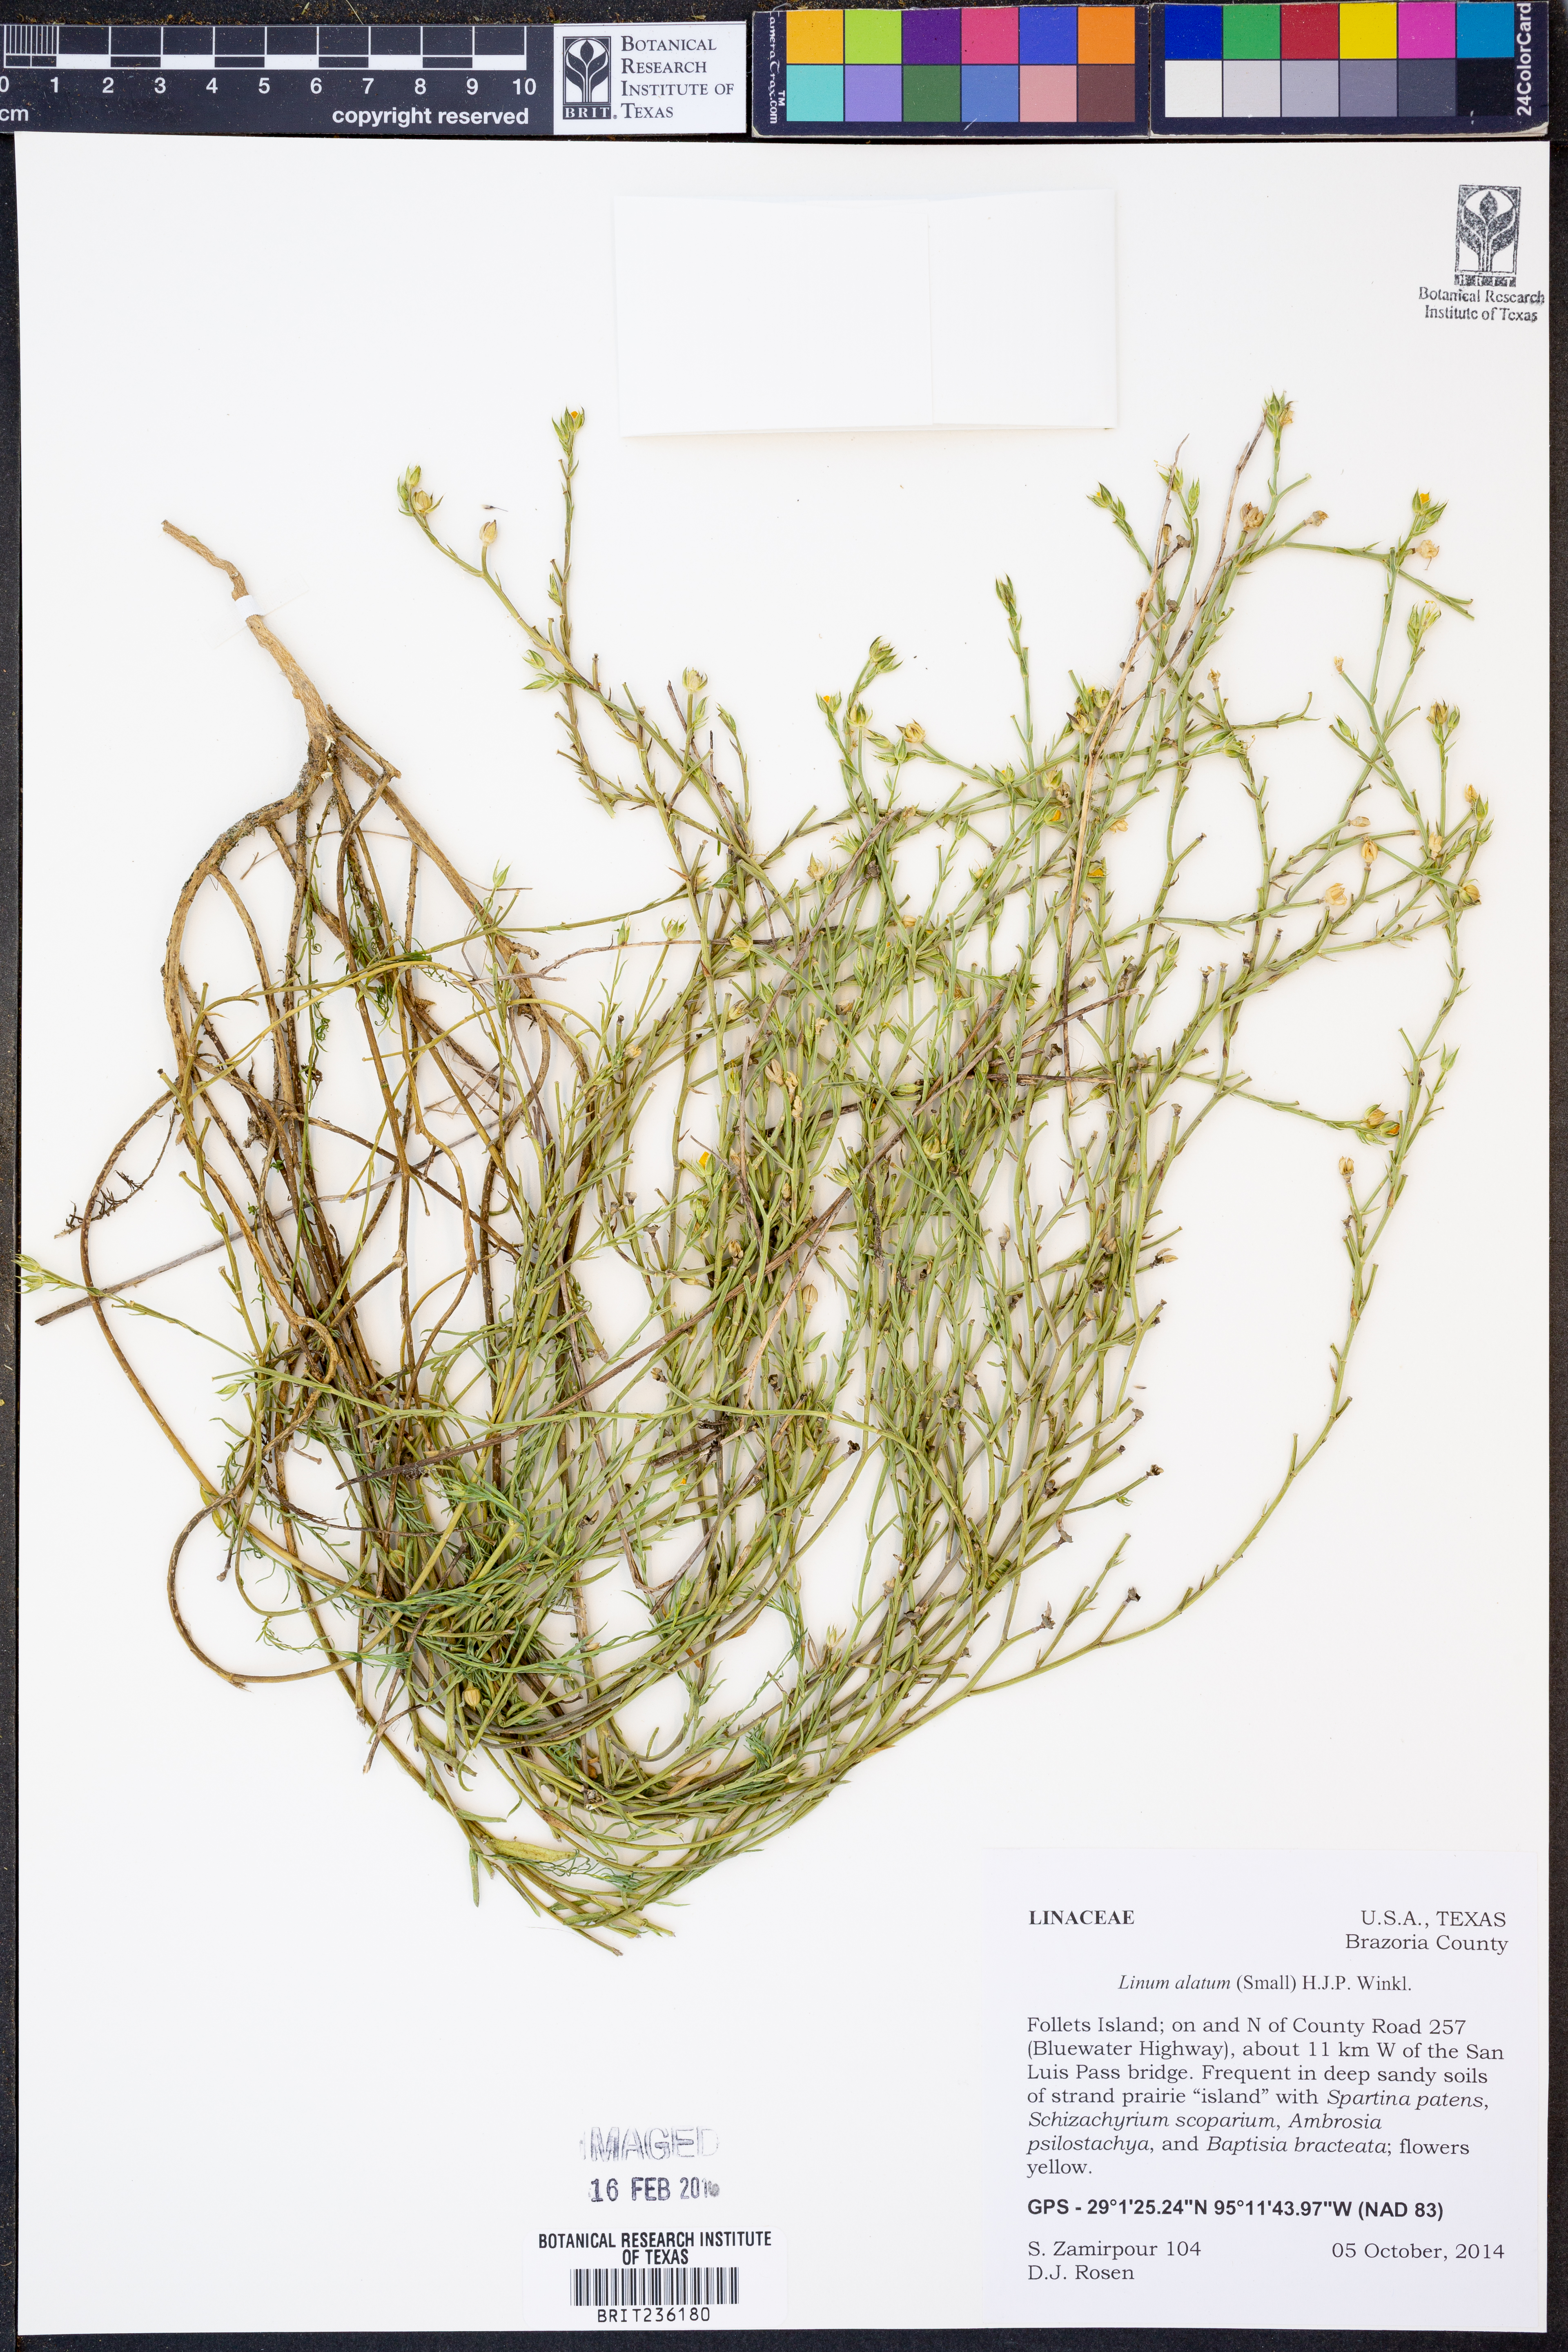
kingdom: Plantae
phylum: Tracheophyta
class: Magnoliopsida
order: Malpighiales
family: Linaceae
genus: Linum
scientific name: Linum alatum
